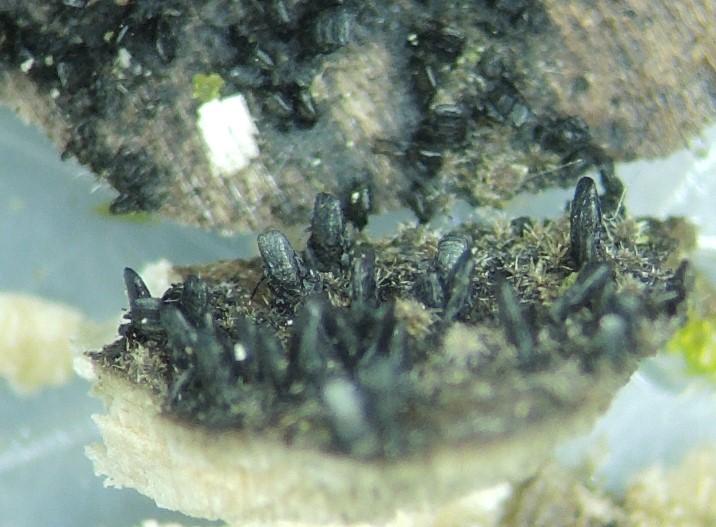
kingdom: Fungi
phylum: Ascomycota
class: Eurotiomycetes
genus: Glyphium
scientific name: Glyphium elatum
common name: kuløkse
